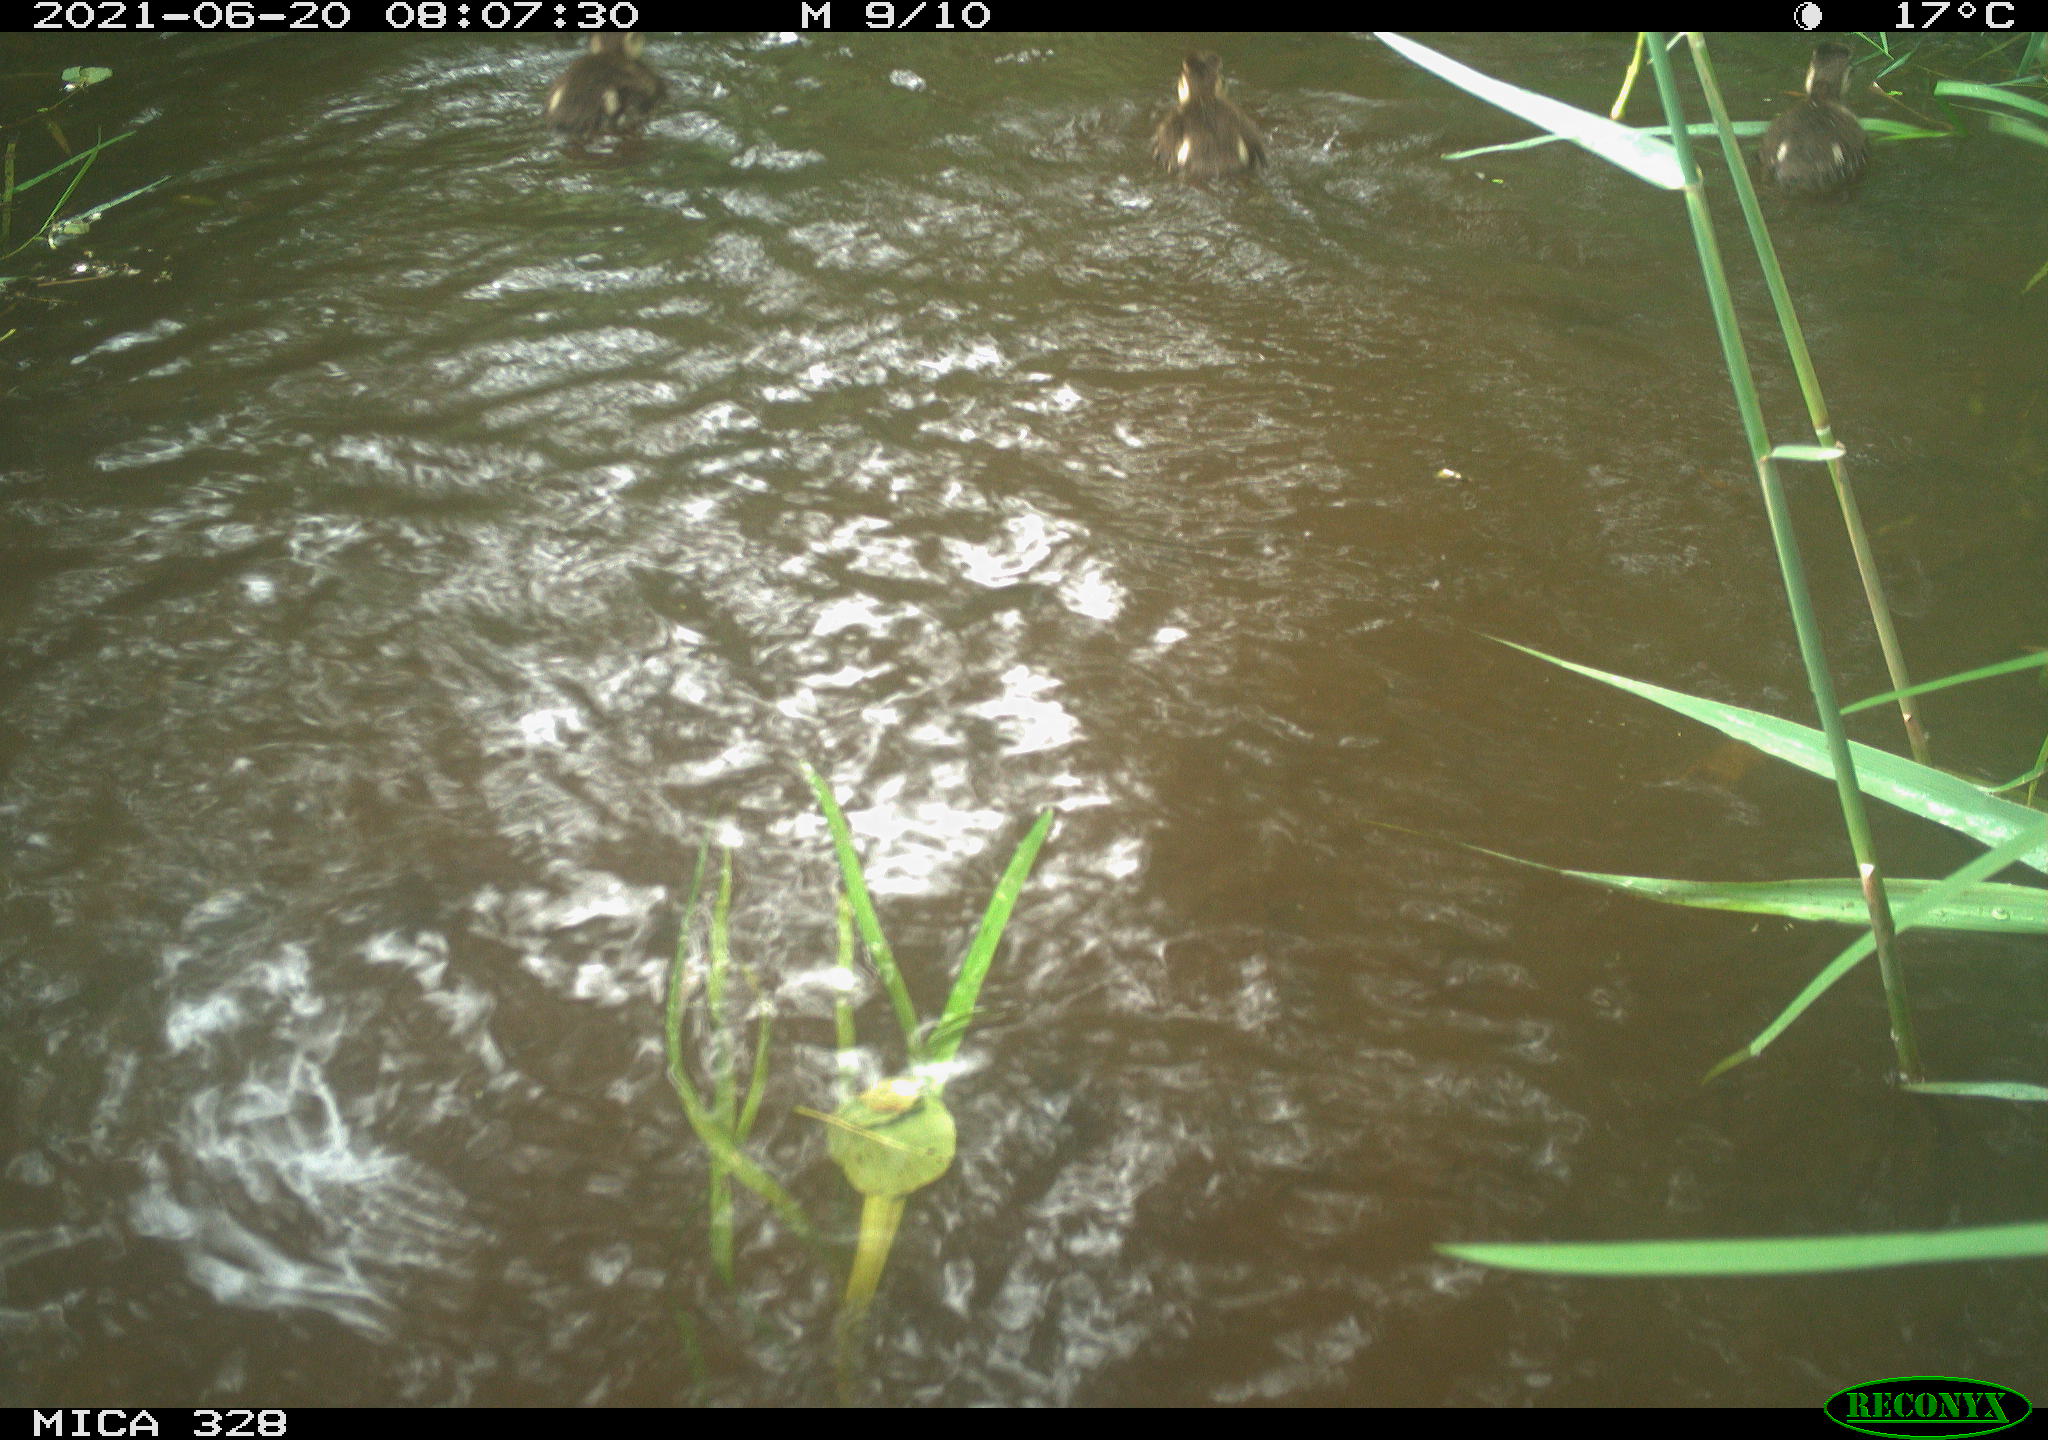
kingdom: Animalia
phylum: Chordata
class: Aves
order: Anseriformes
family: Anatidae
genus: Aix
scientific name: Aix galericulata
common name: Mandarin duck
